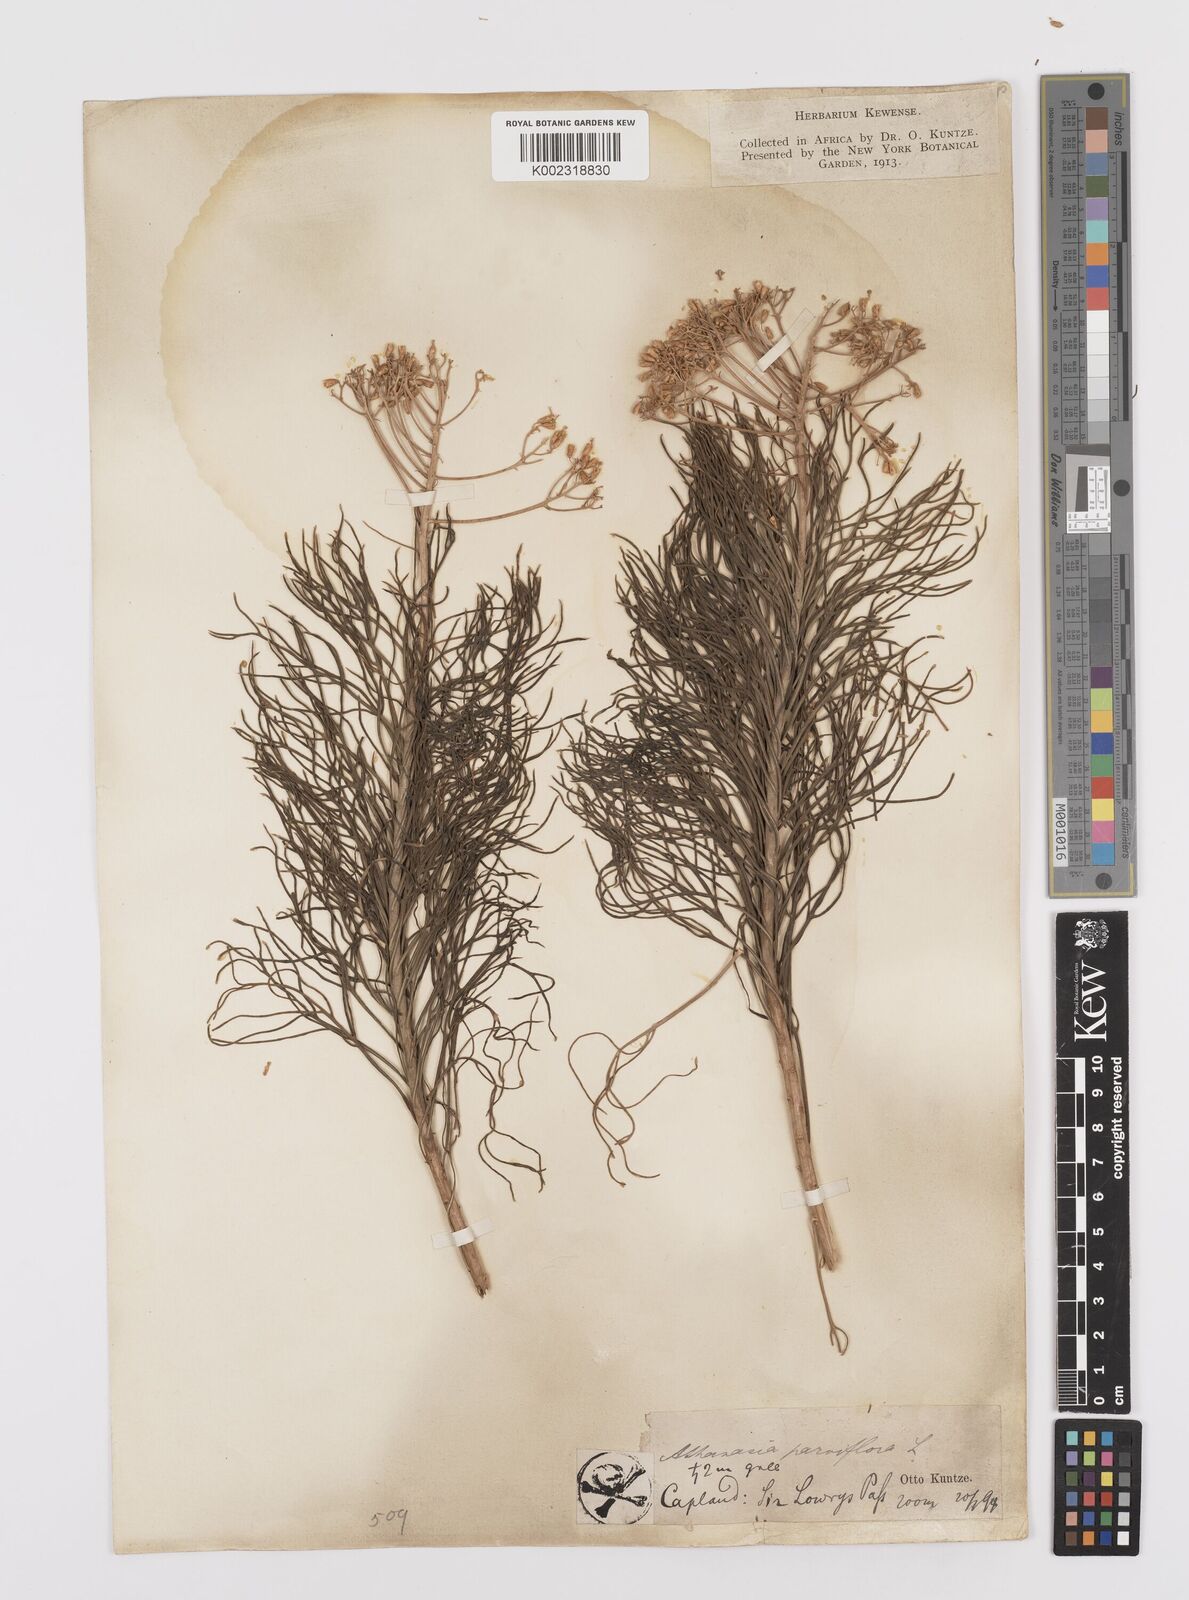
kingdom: Plantae
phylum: Tracheophyta
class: Magnoliopsida
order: Asterales
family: Asteraceae
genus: Hymenolepis
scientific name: Hymenolepis crithmifolia
